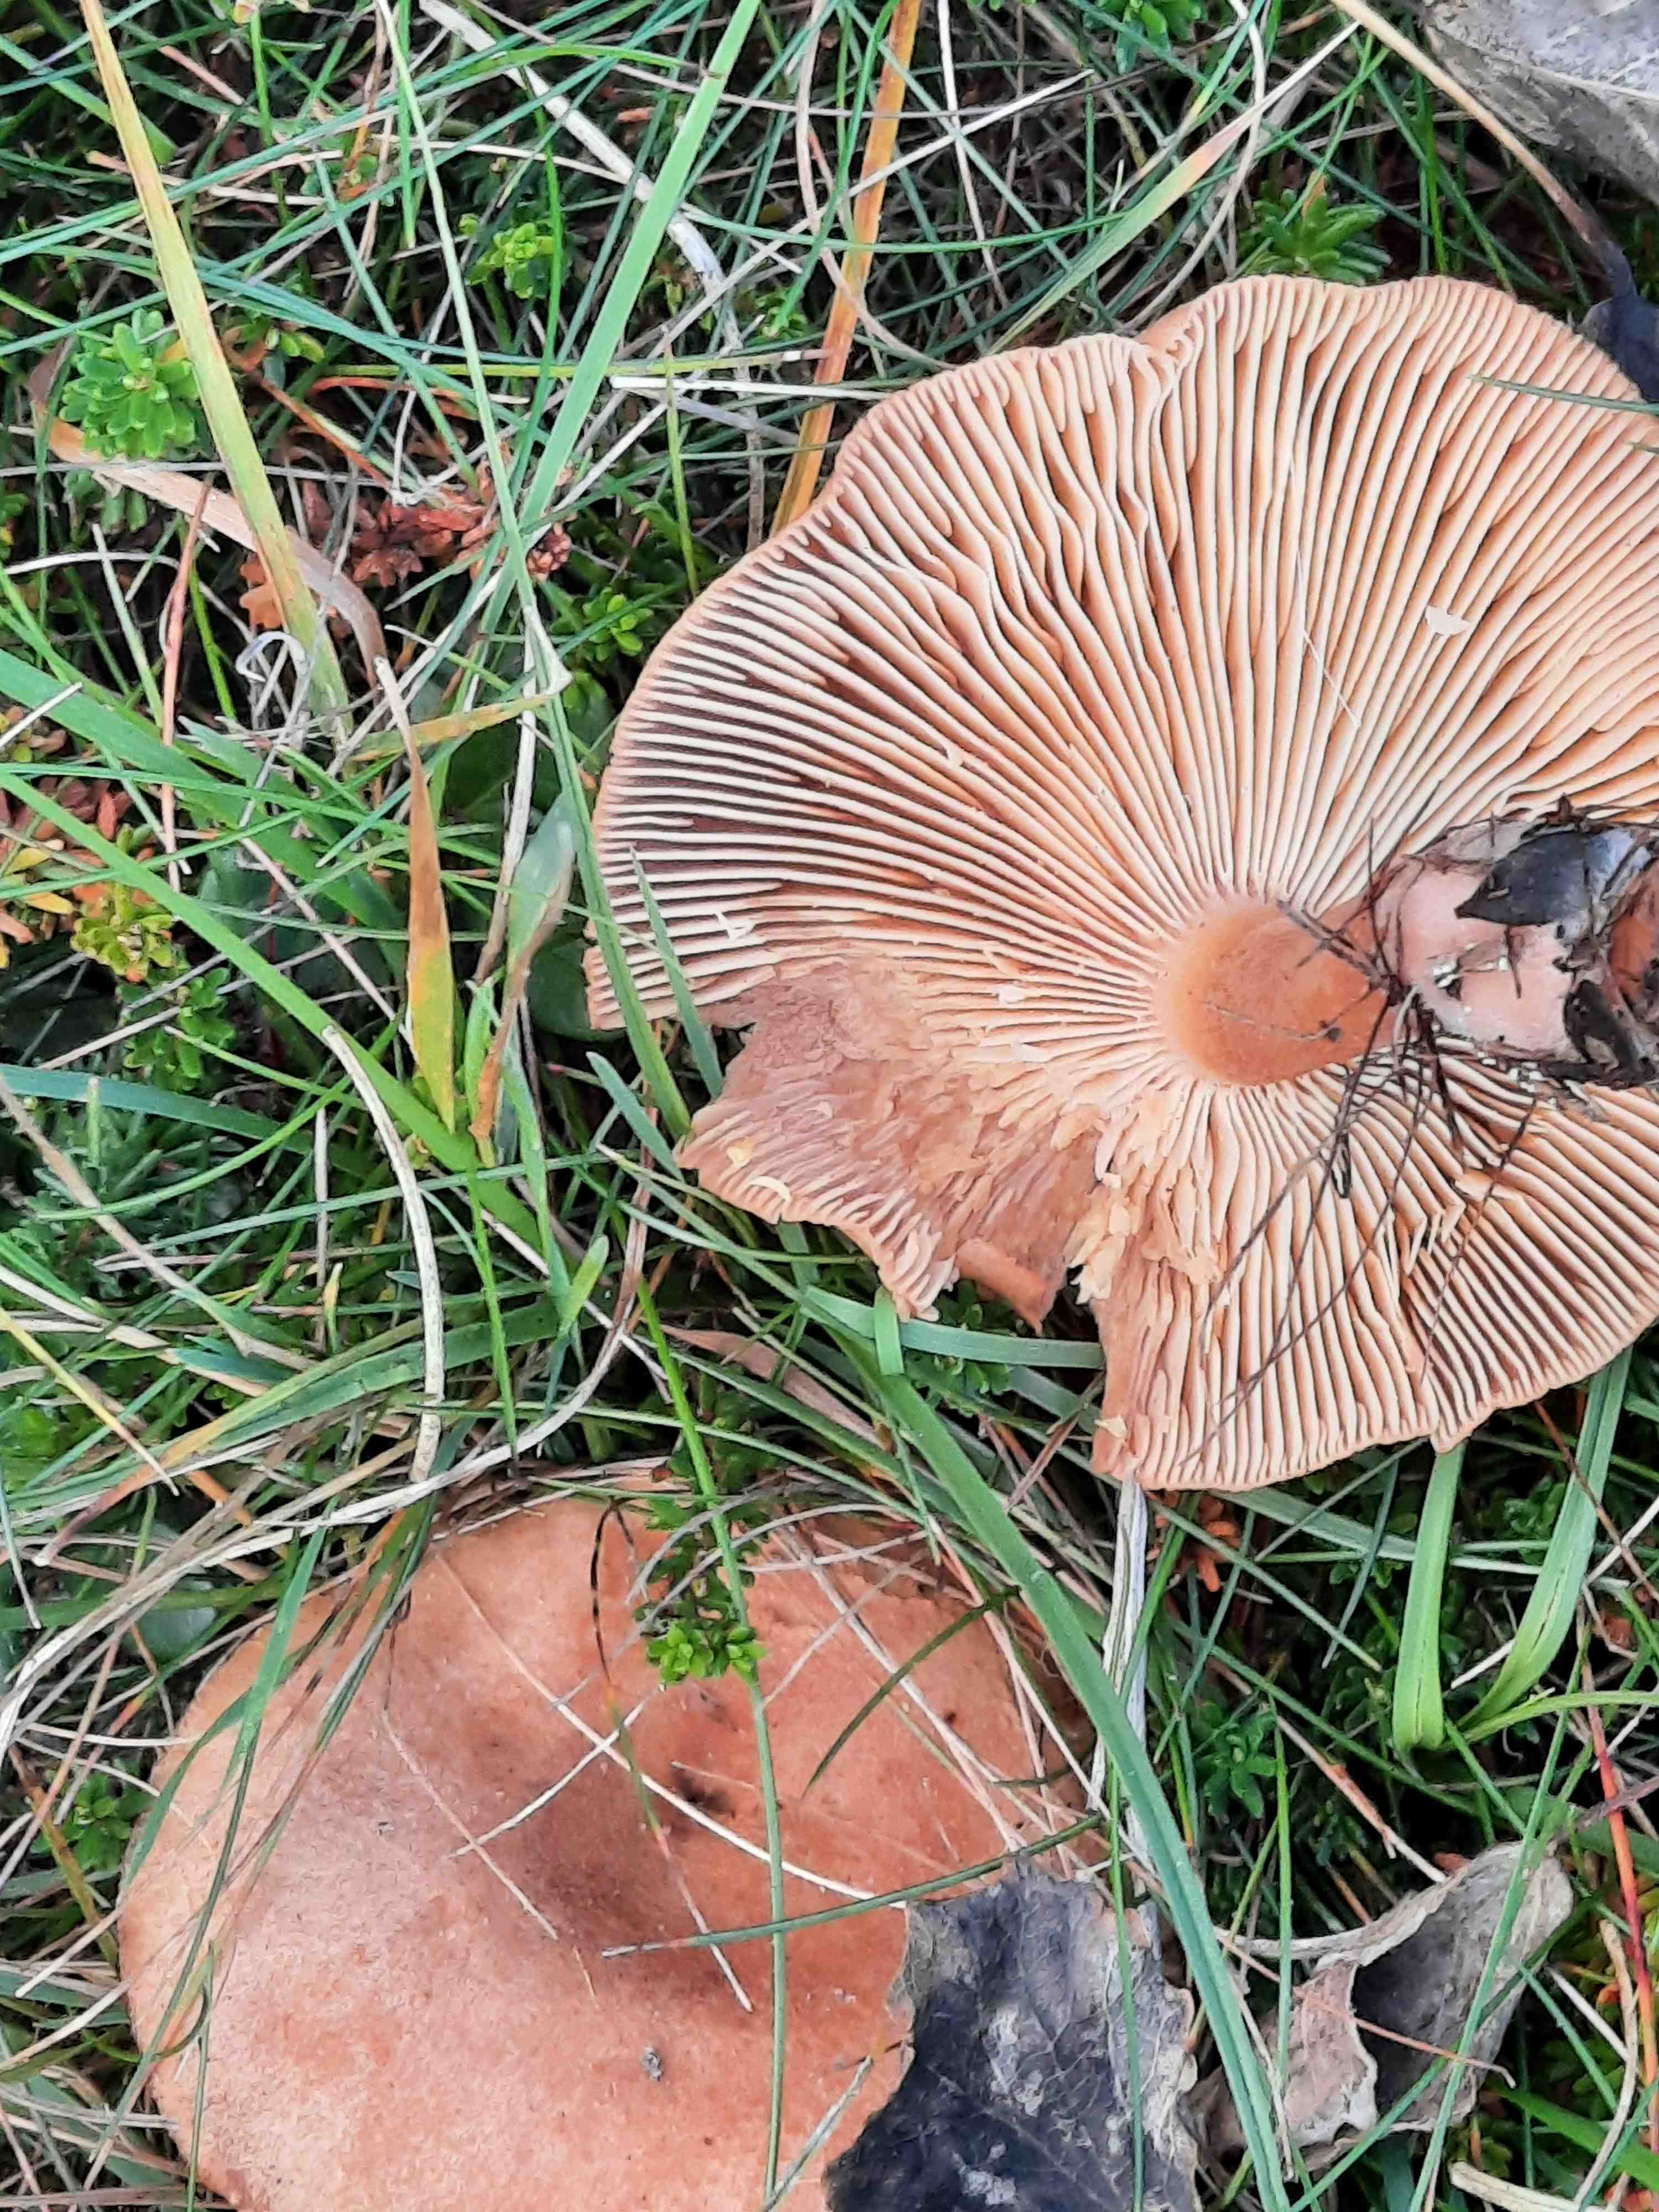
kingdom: Fungi
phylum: Basidiomycota
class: Agaricomycetes
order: Russulales
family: Russulaceae
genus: Lactarius
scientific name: Lactarius helvus
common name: mose-mælkehat
